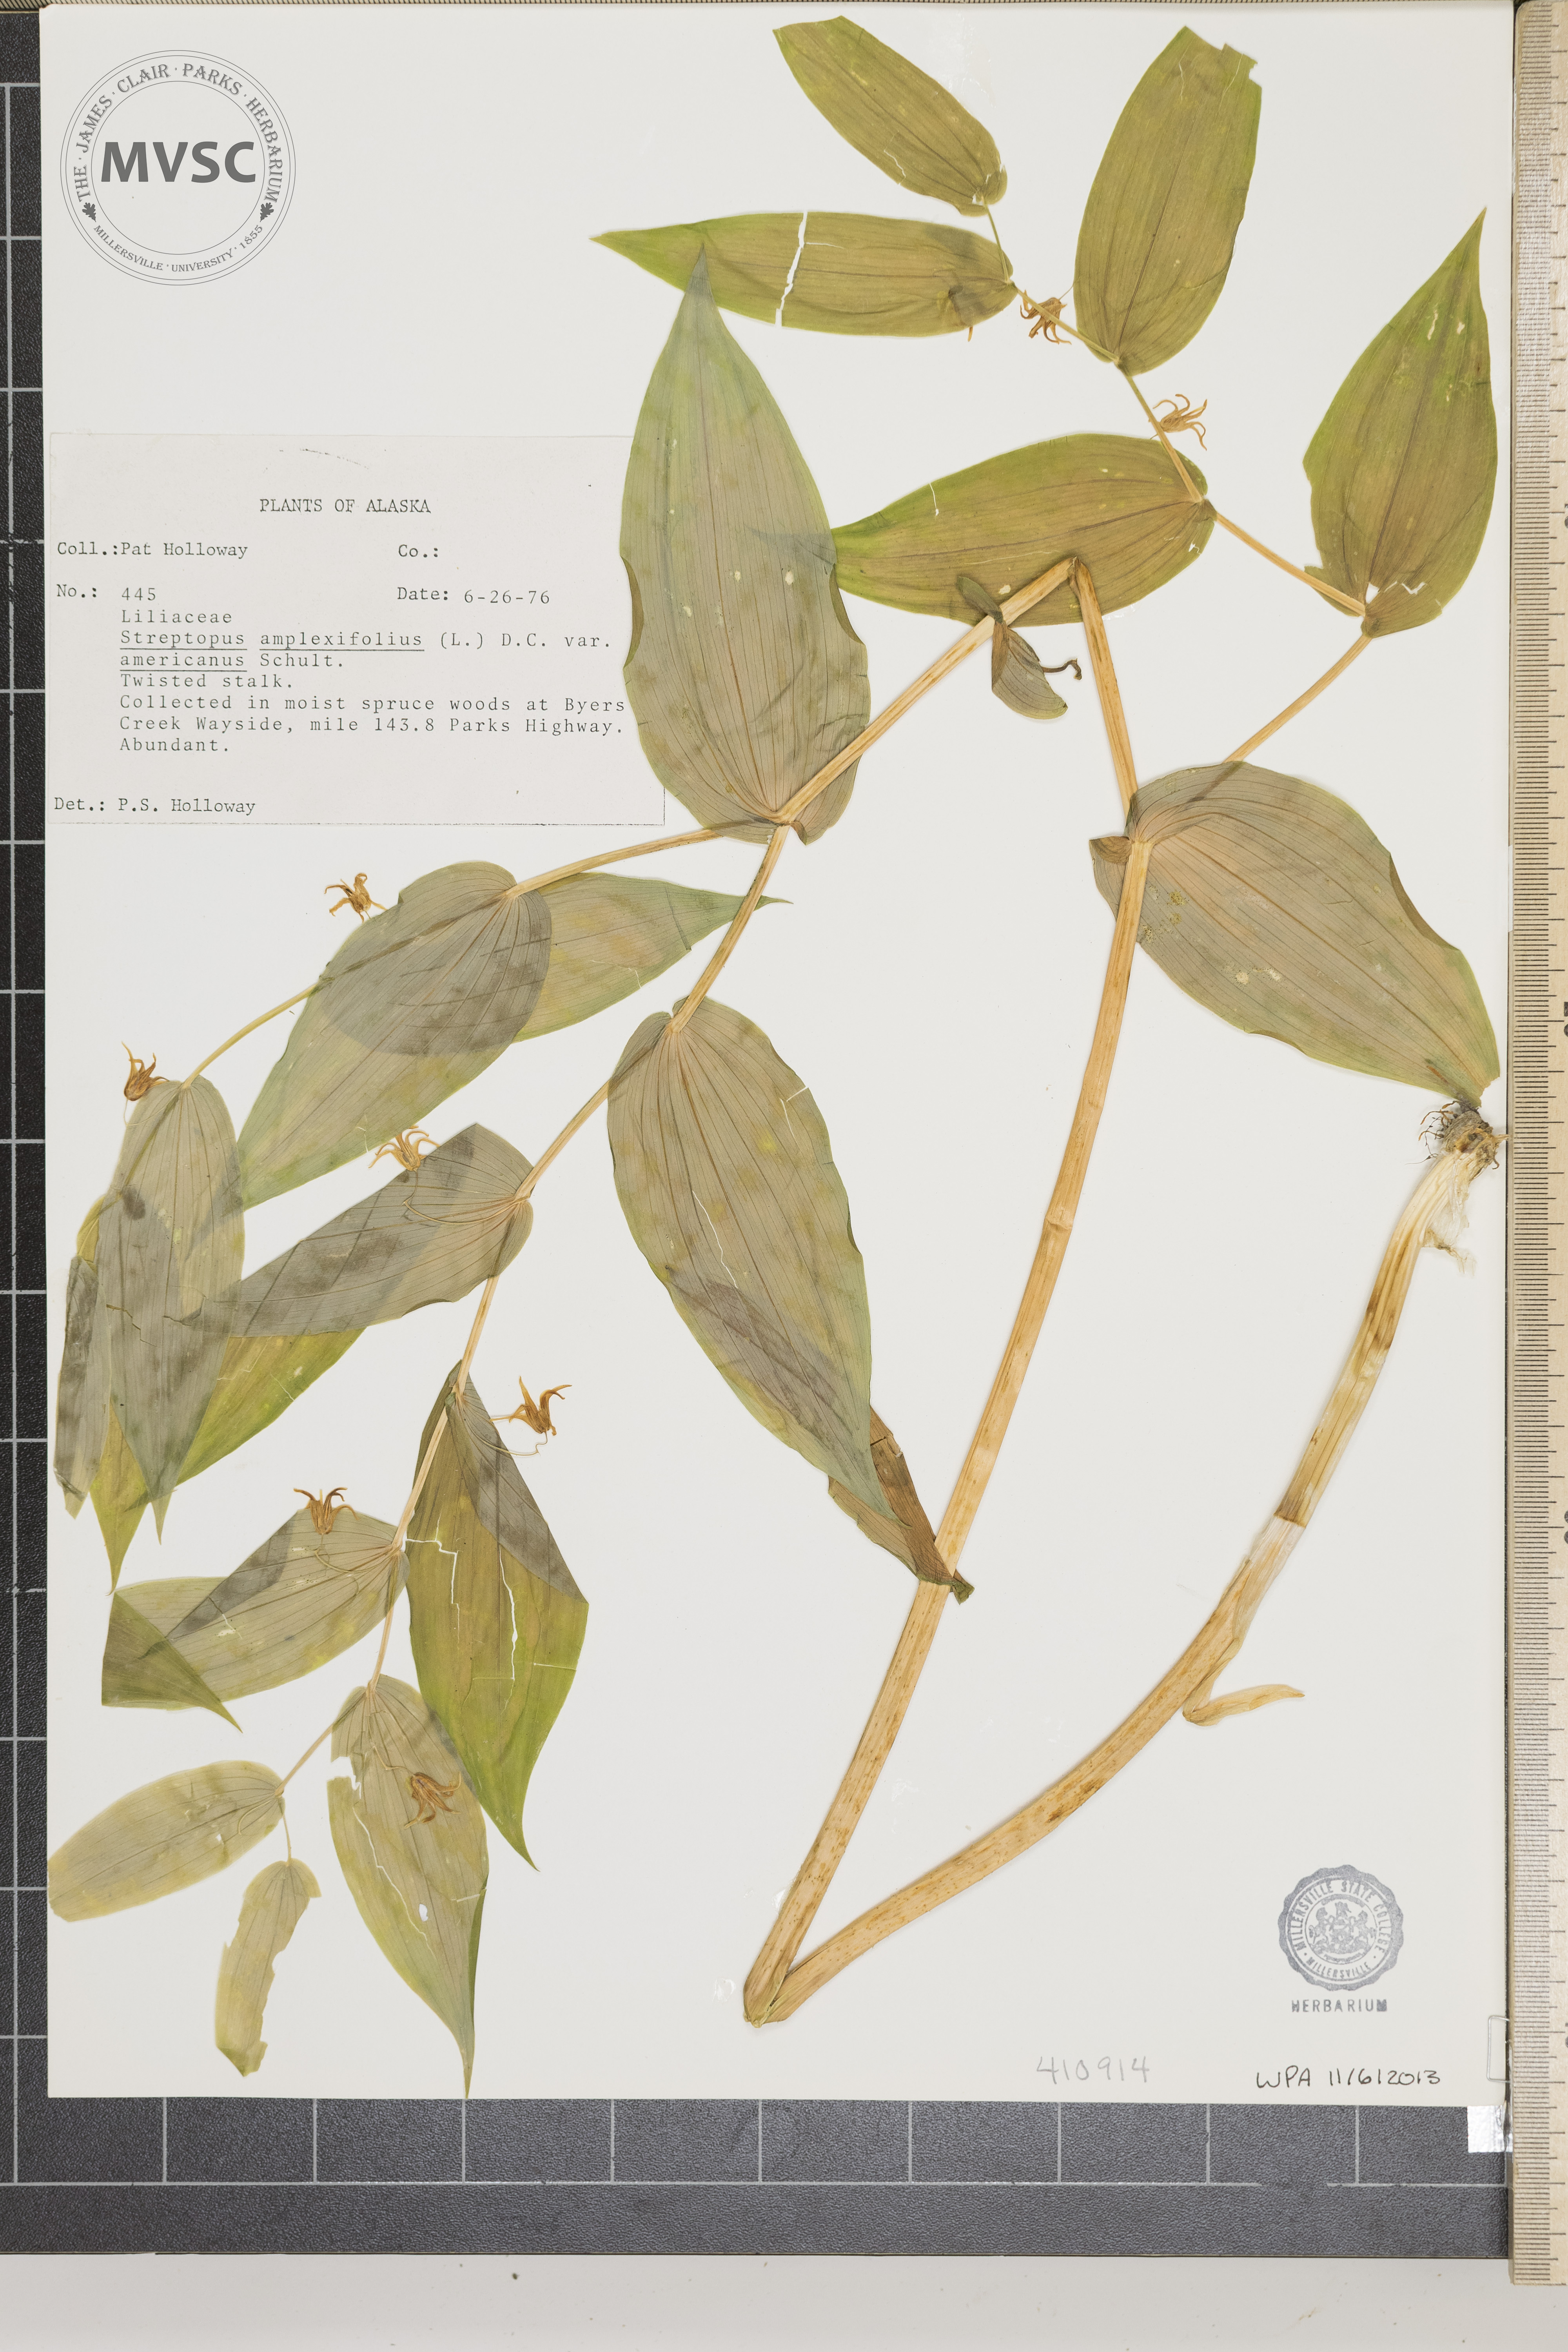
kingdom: Plantae
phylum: Tracheophyta
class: Liliopsida
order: Liliales
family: Liliaceae
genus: Streptopus
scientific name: Streptopus amplexifolius
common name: Clasp twisted stalk
